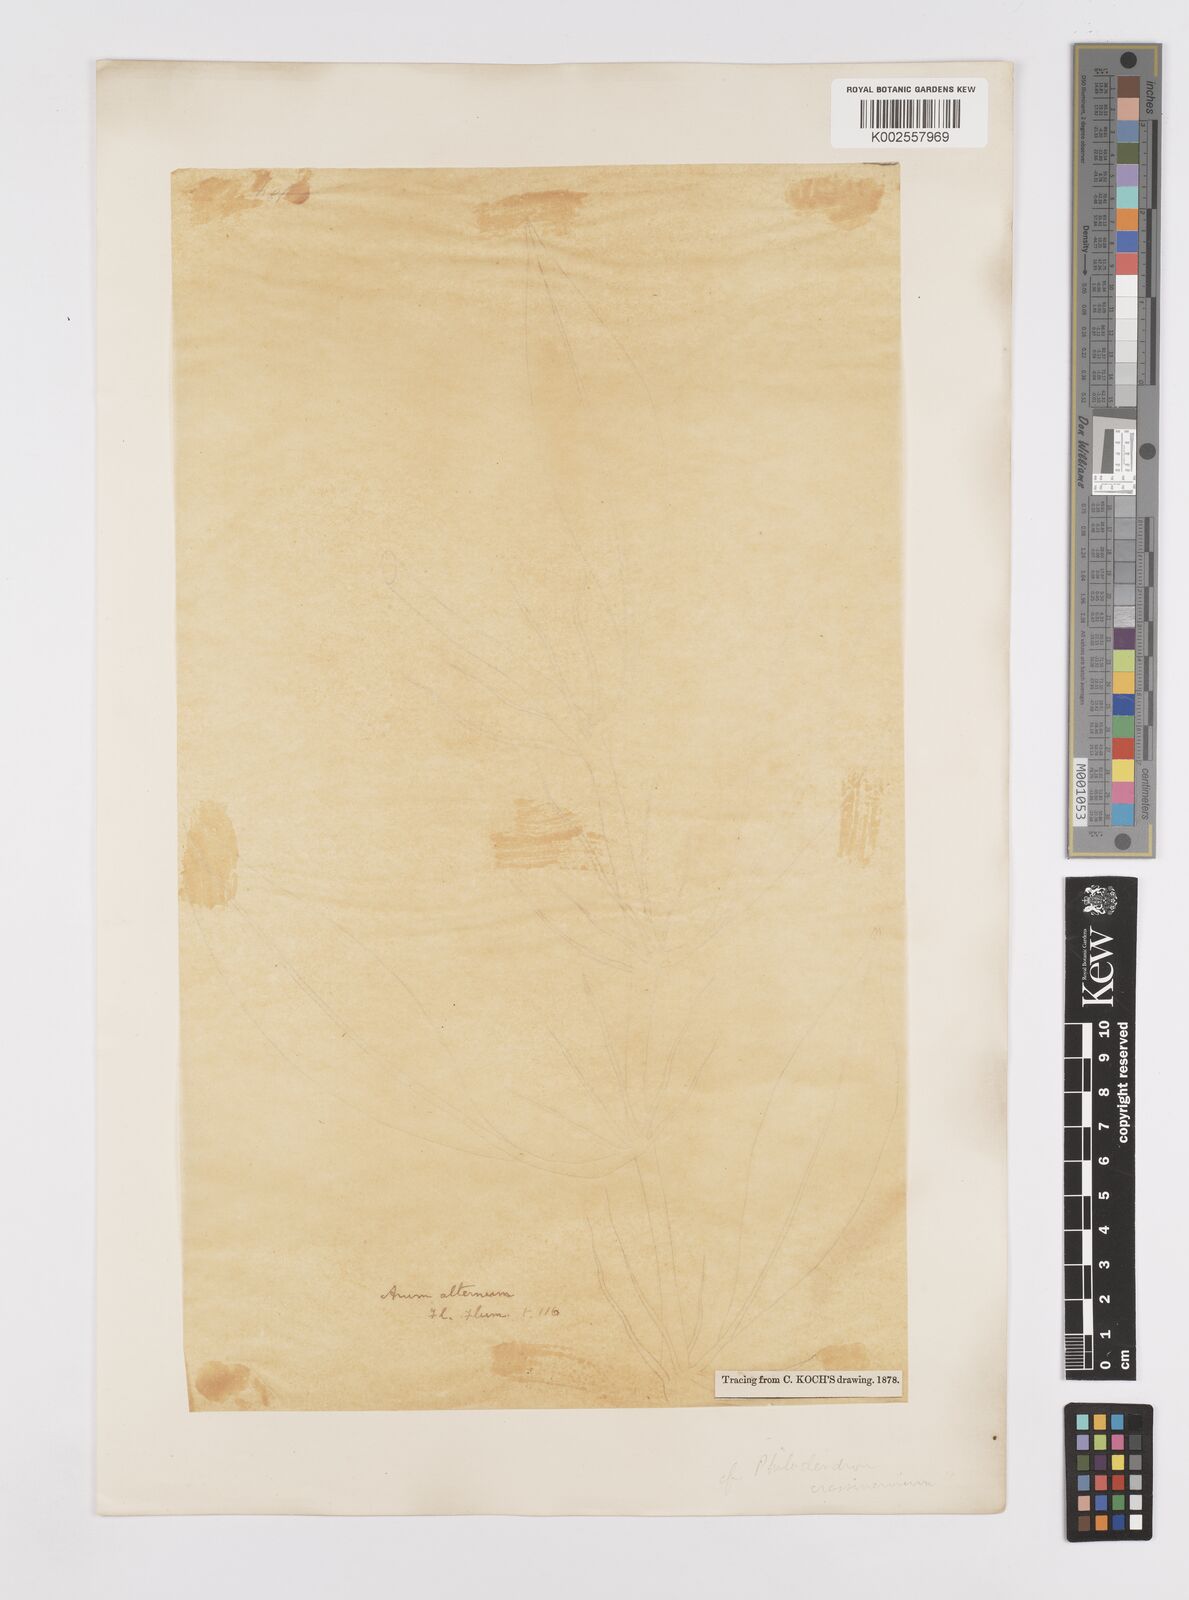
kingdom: Plantae
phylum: Tracheophyta
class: Liliopsida
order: Alismatales
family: Araceae
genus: Philodendron
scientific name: Philodendron crassinervium
